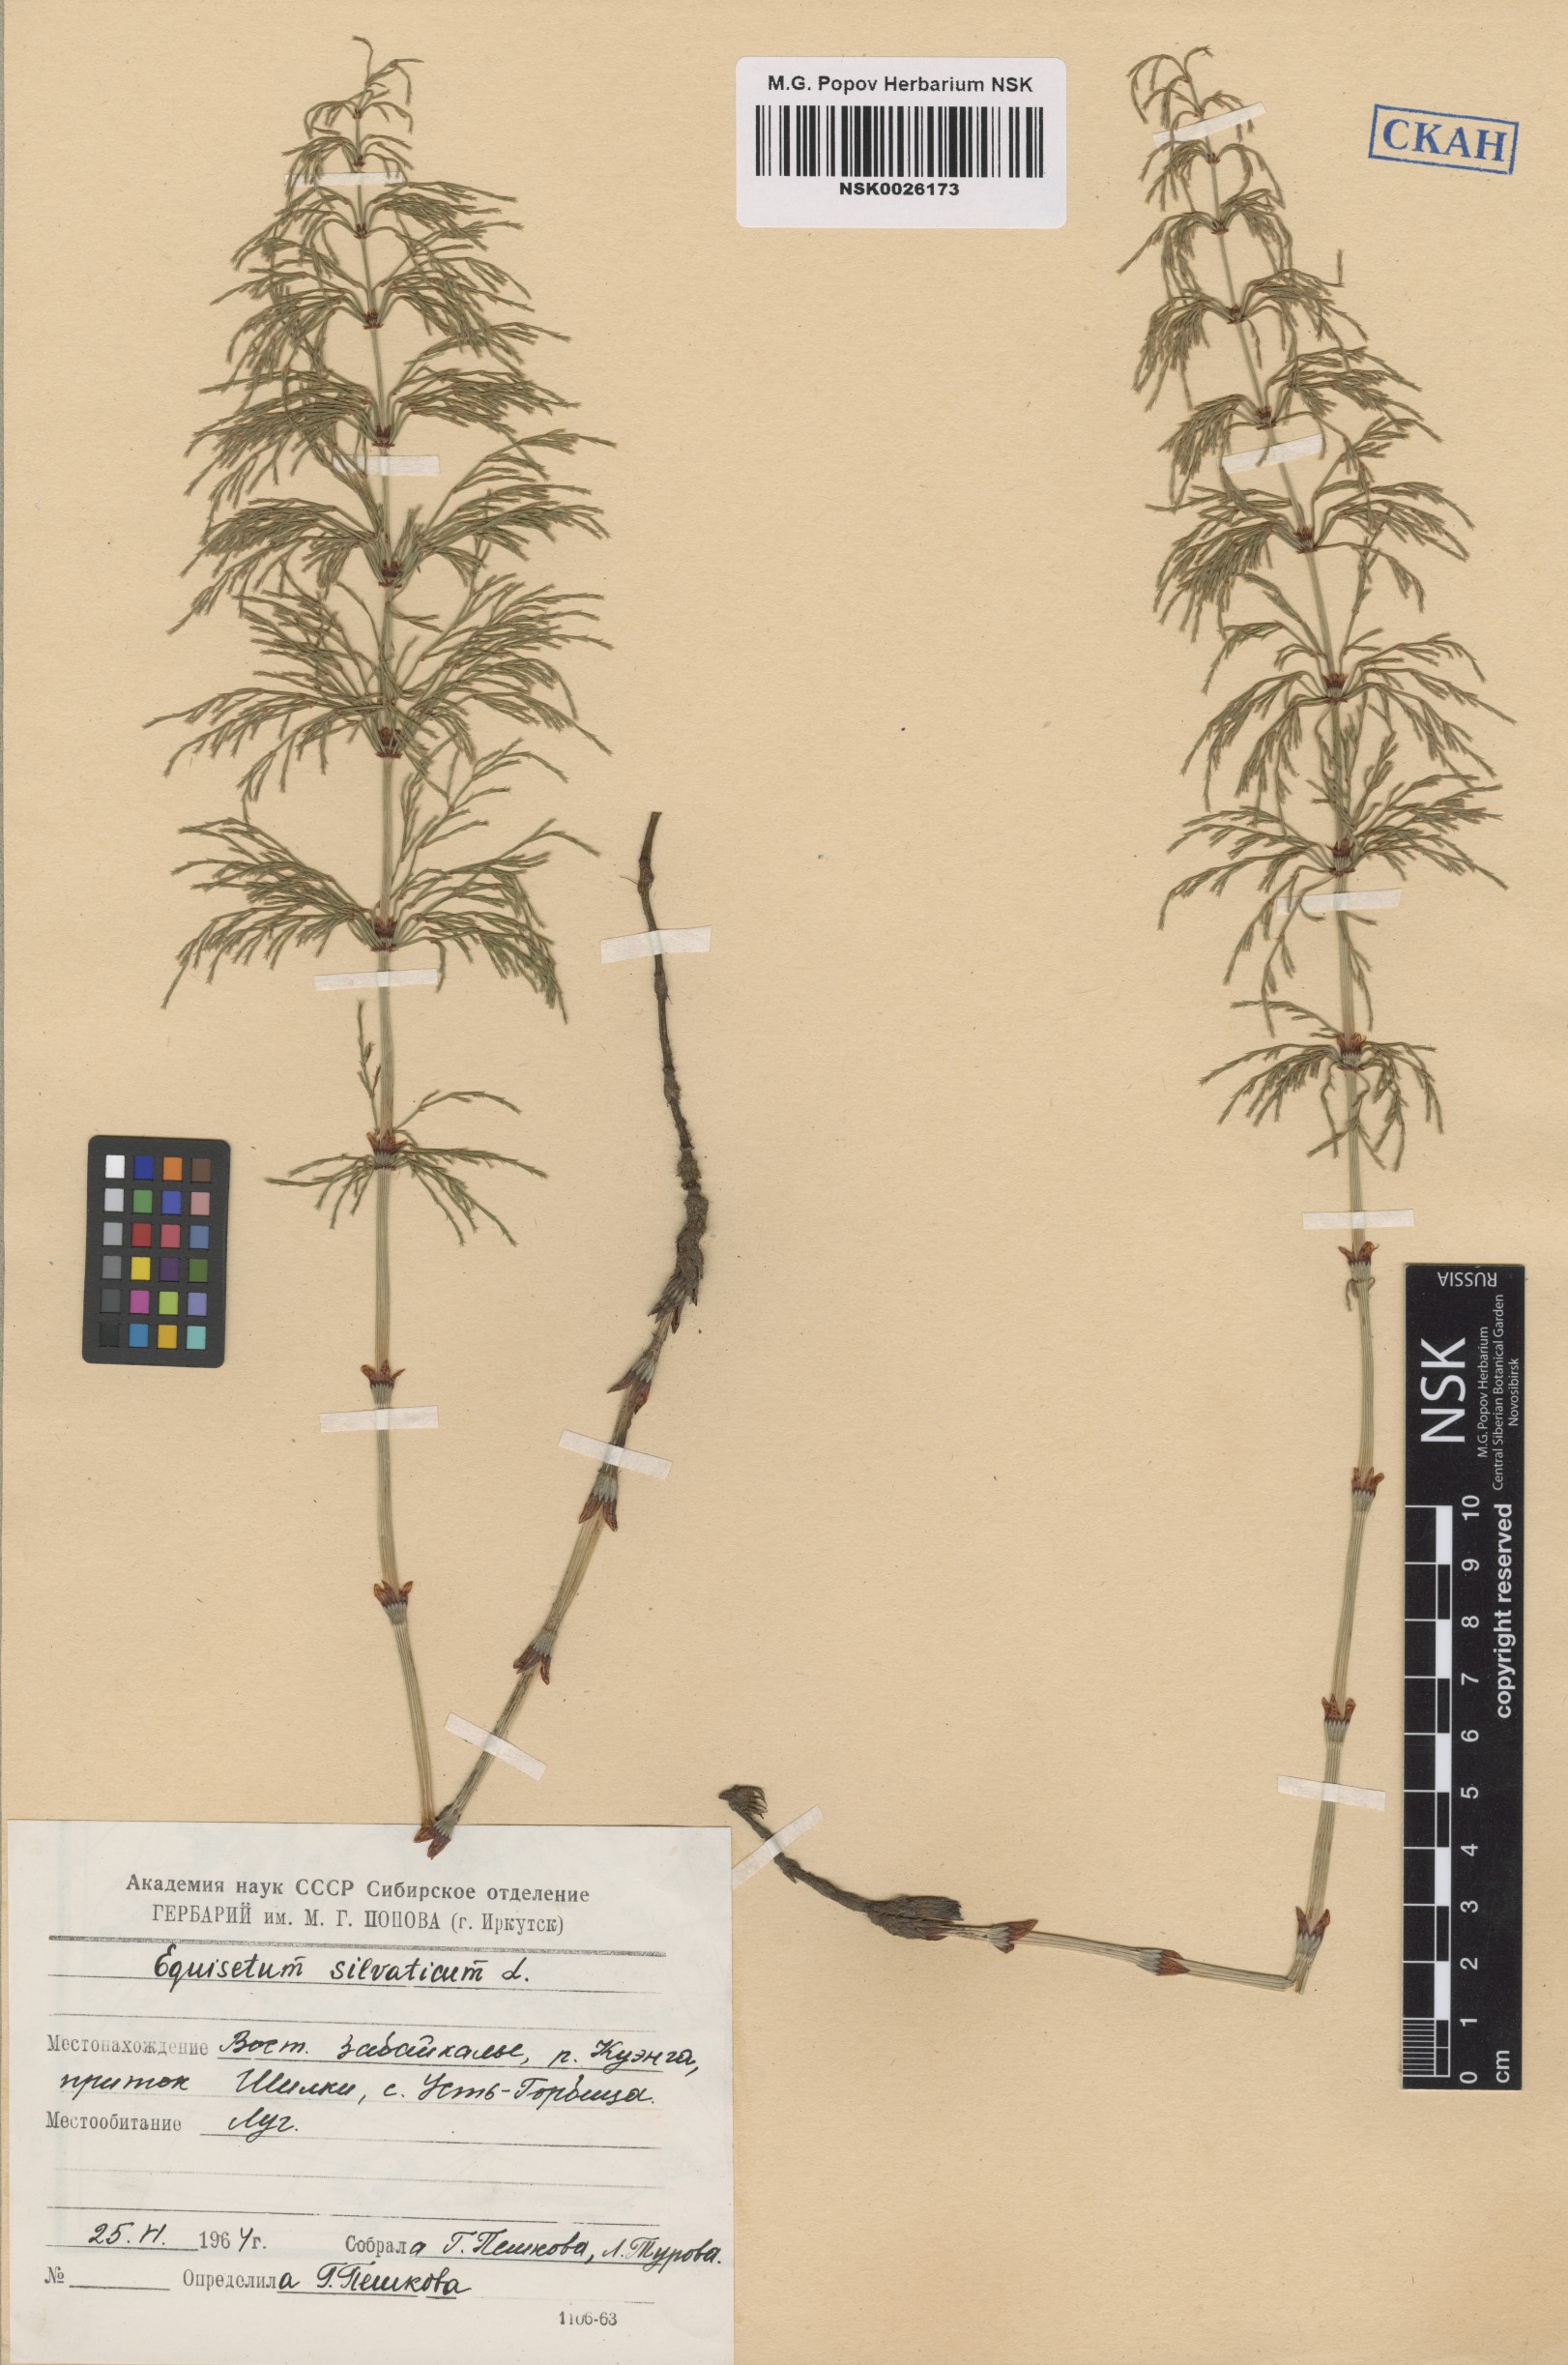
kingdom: Plantae
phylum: Tracheophyta
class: Polypodiopsida
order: Equisetales
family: Equisetaceae
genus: Equisetum
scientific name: Equisetum sylvaticum
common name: Wood horsetail
